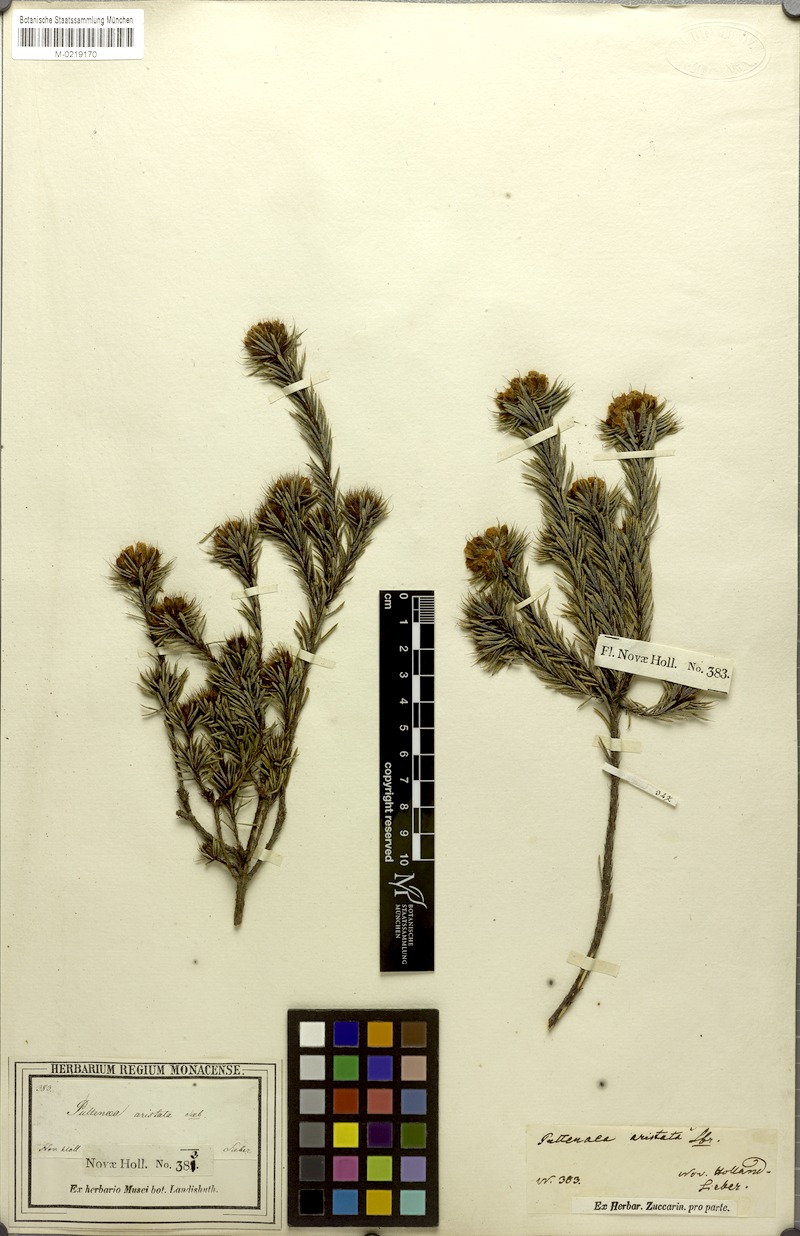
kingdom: Plantae
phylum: Tracheophyta
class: Magnoliopsida
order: Fabales
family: Fabaceae
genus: Pultenaea
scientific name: Pultenaea aristata
